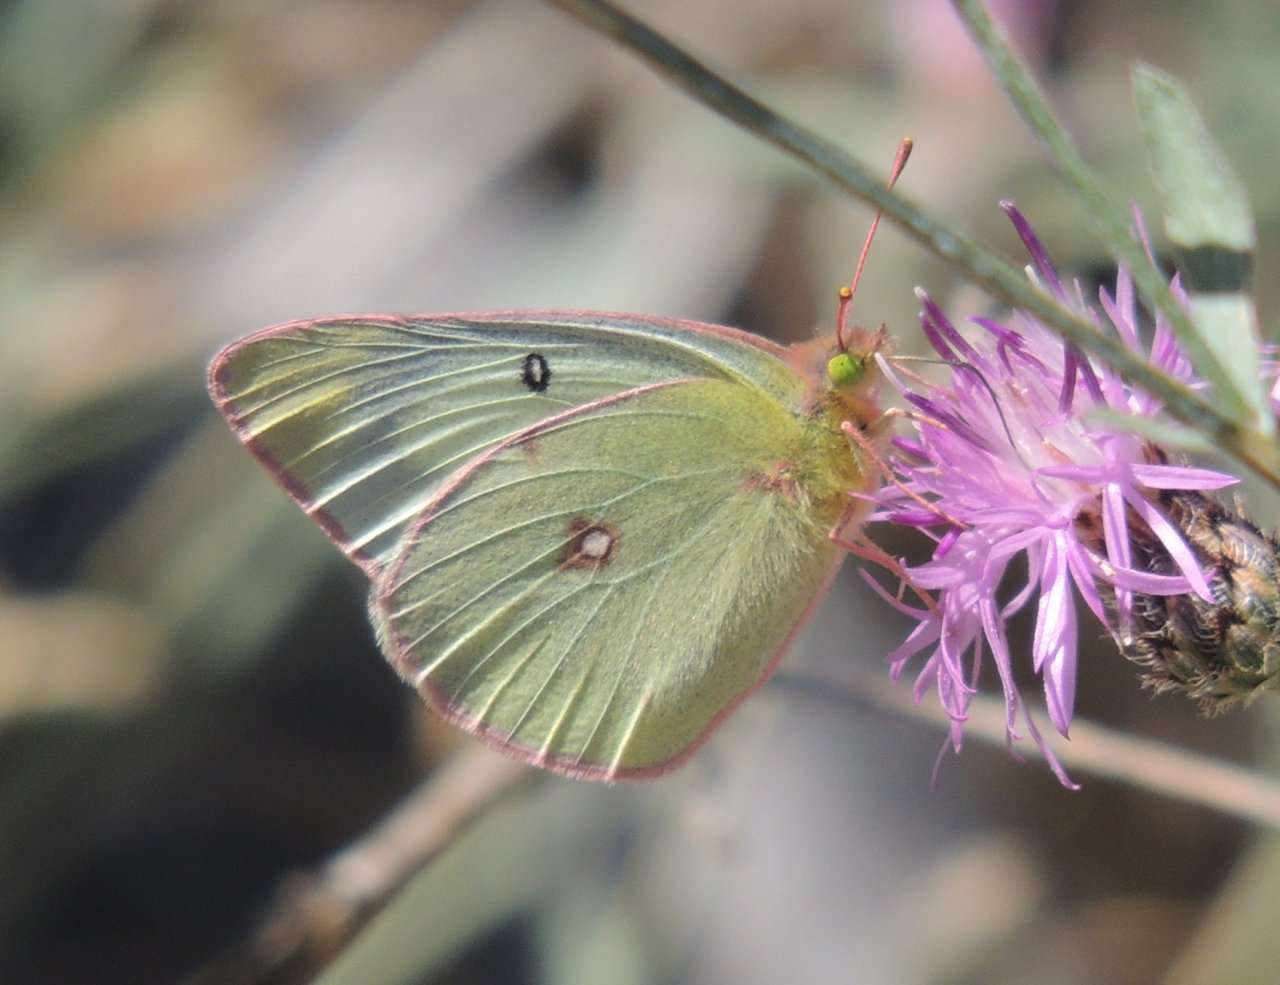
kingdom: Animalia
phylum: Arthropoda
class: Insecta
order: Lepidoptera
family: Pieridae
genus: Colias
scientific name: Colias eurytheme
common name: Orange Sulphur
